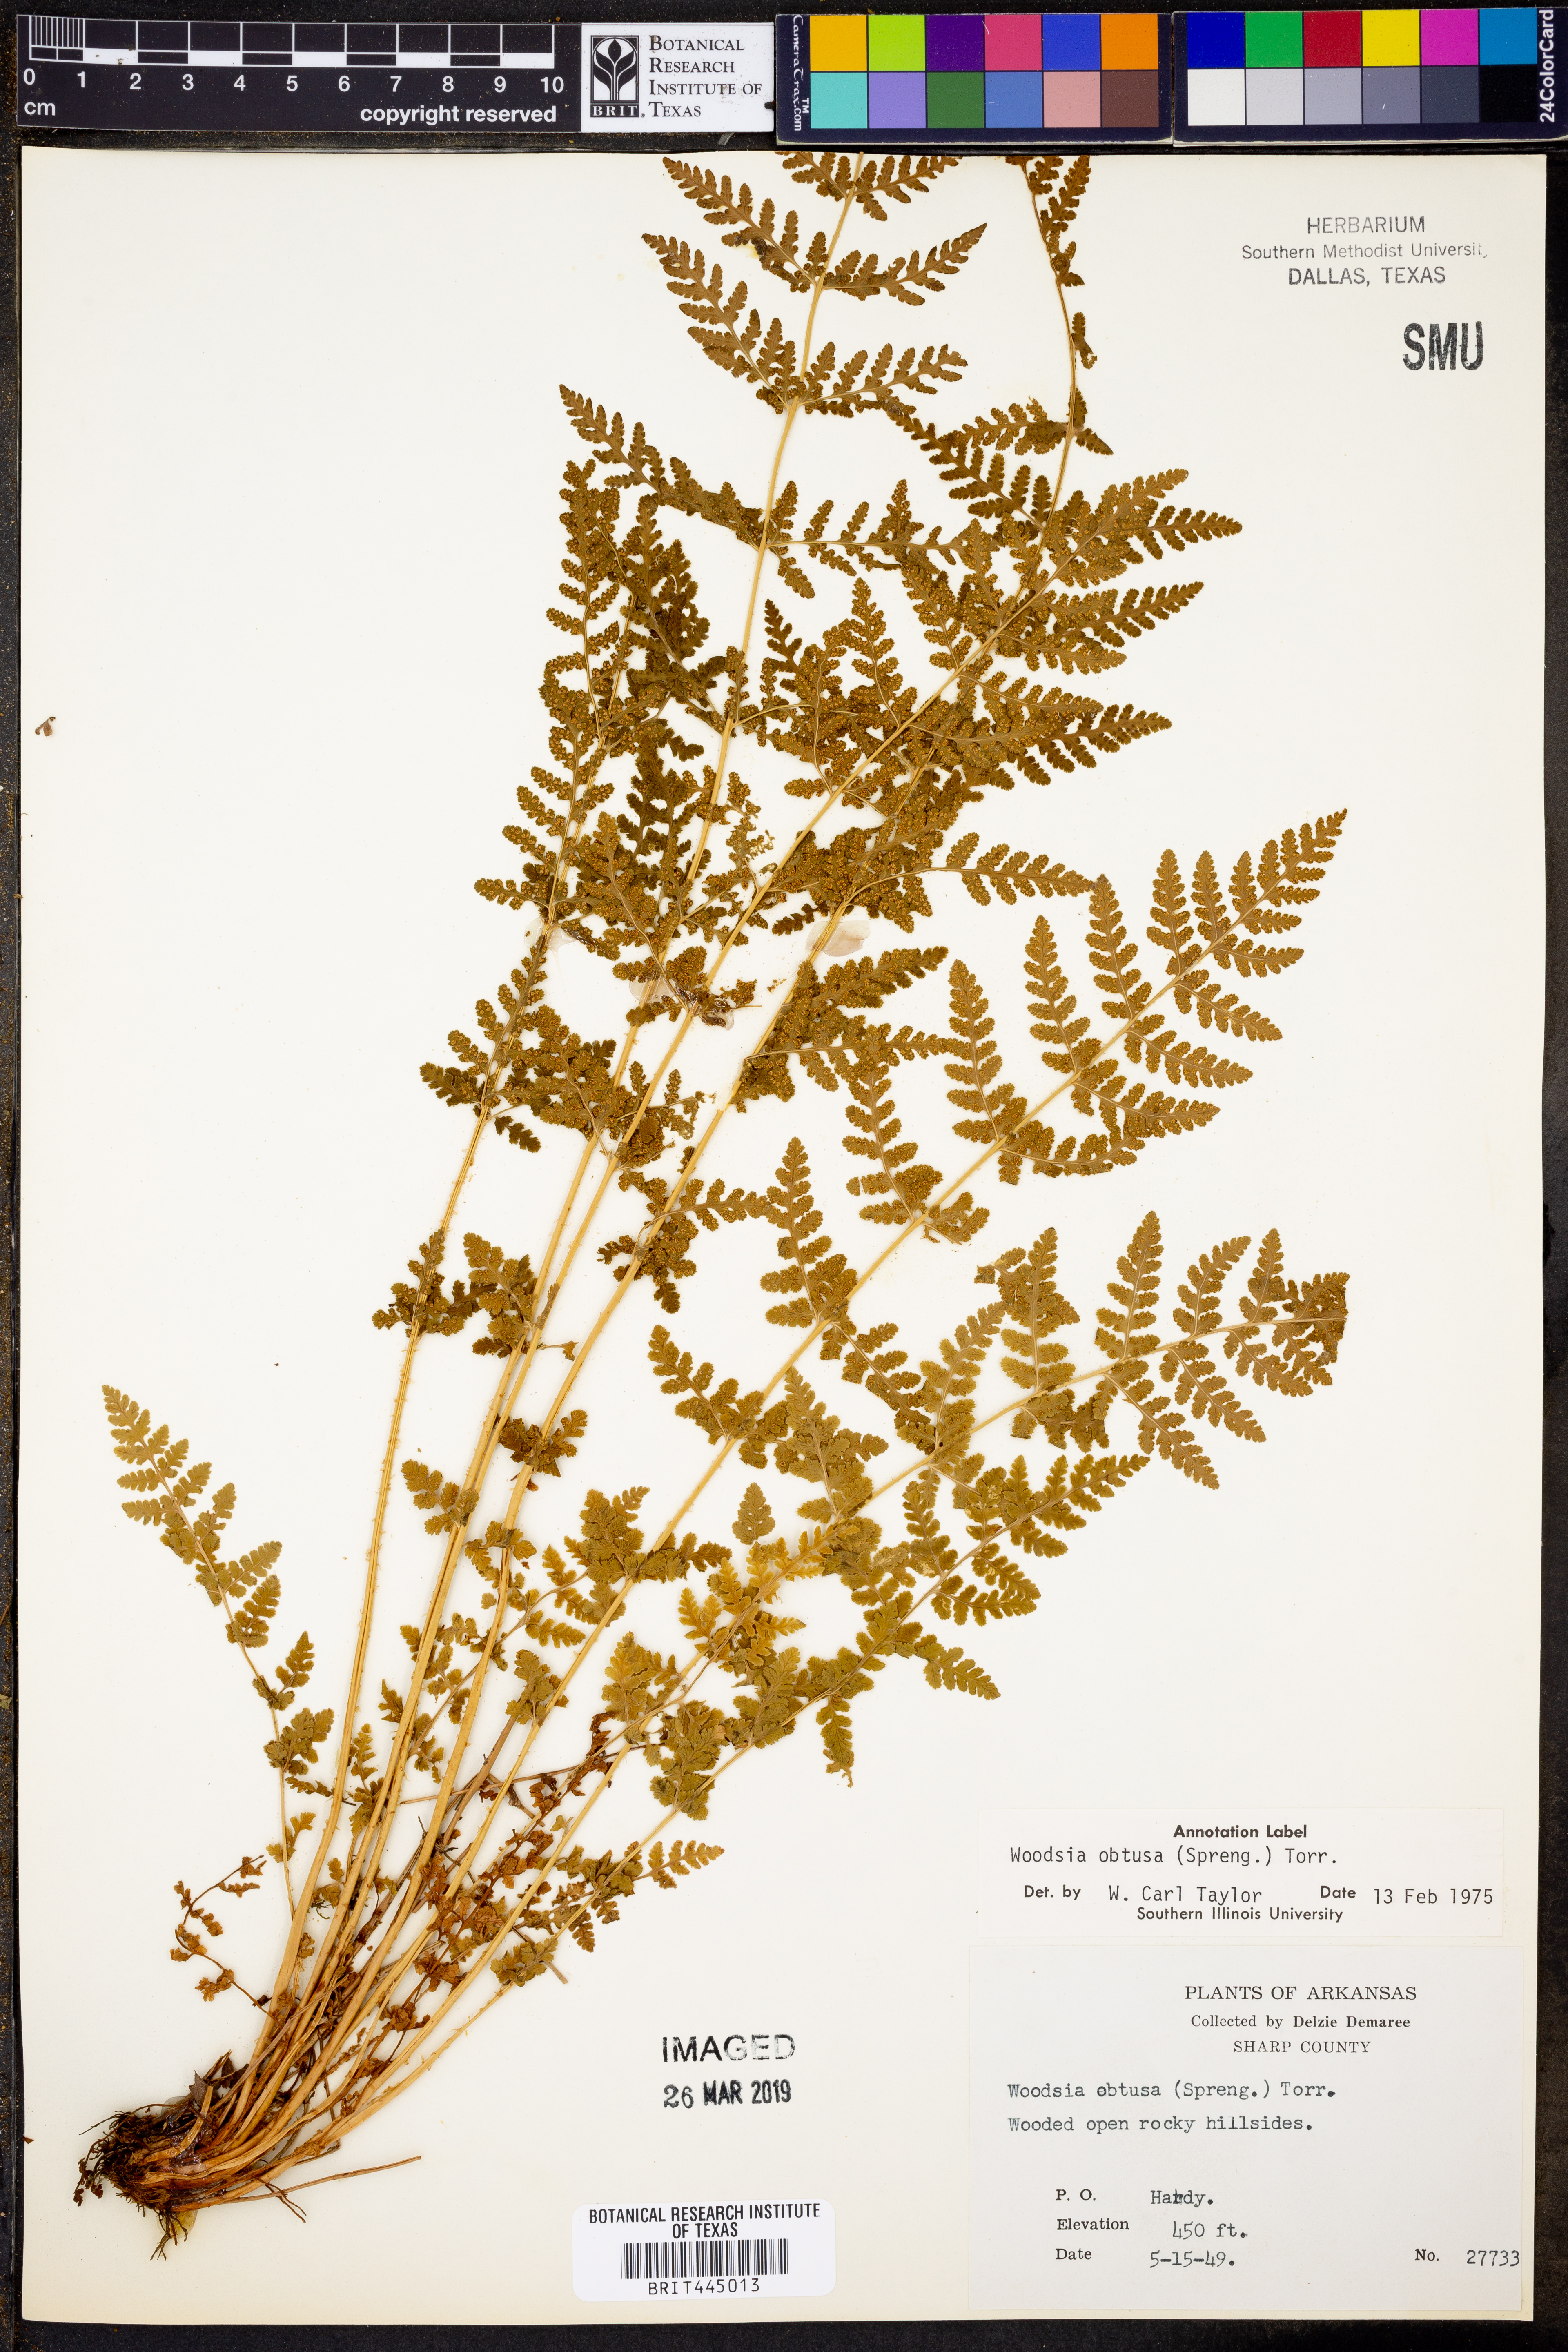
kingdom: Plantae
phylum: Tracheophyta
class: Polypodiopsida
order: Polypodiales
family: Woodsiaceae
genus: Physematium
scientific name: Physematium obtusum
